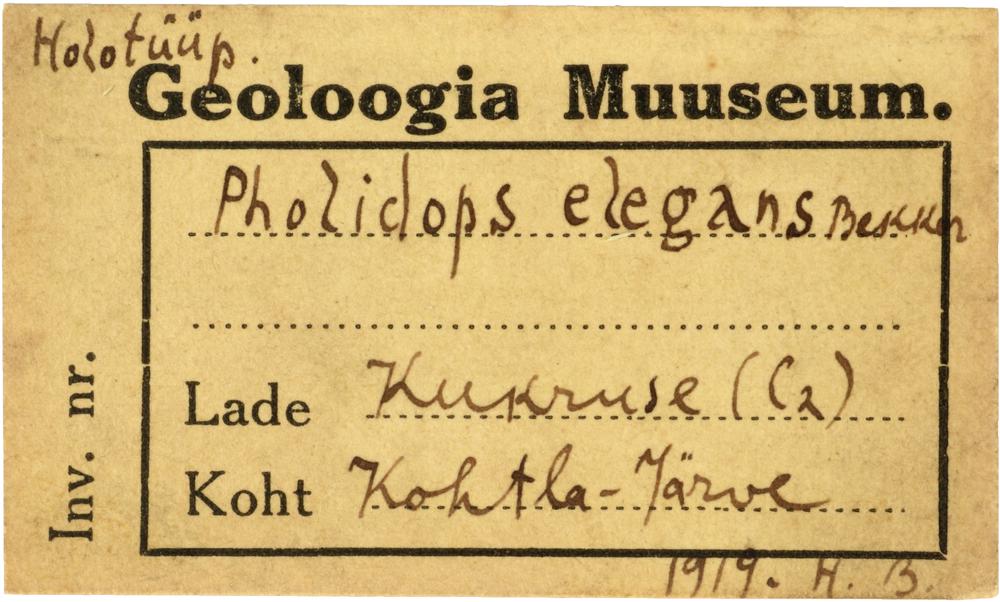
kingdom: Animalia
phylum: Brachiopoda
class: Craniata
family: Craniopsidae
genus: Craniops
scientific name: Craniops
